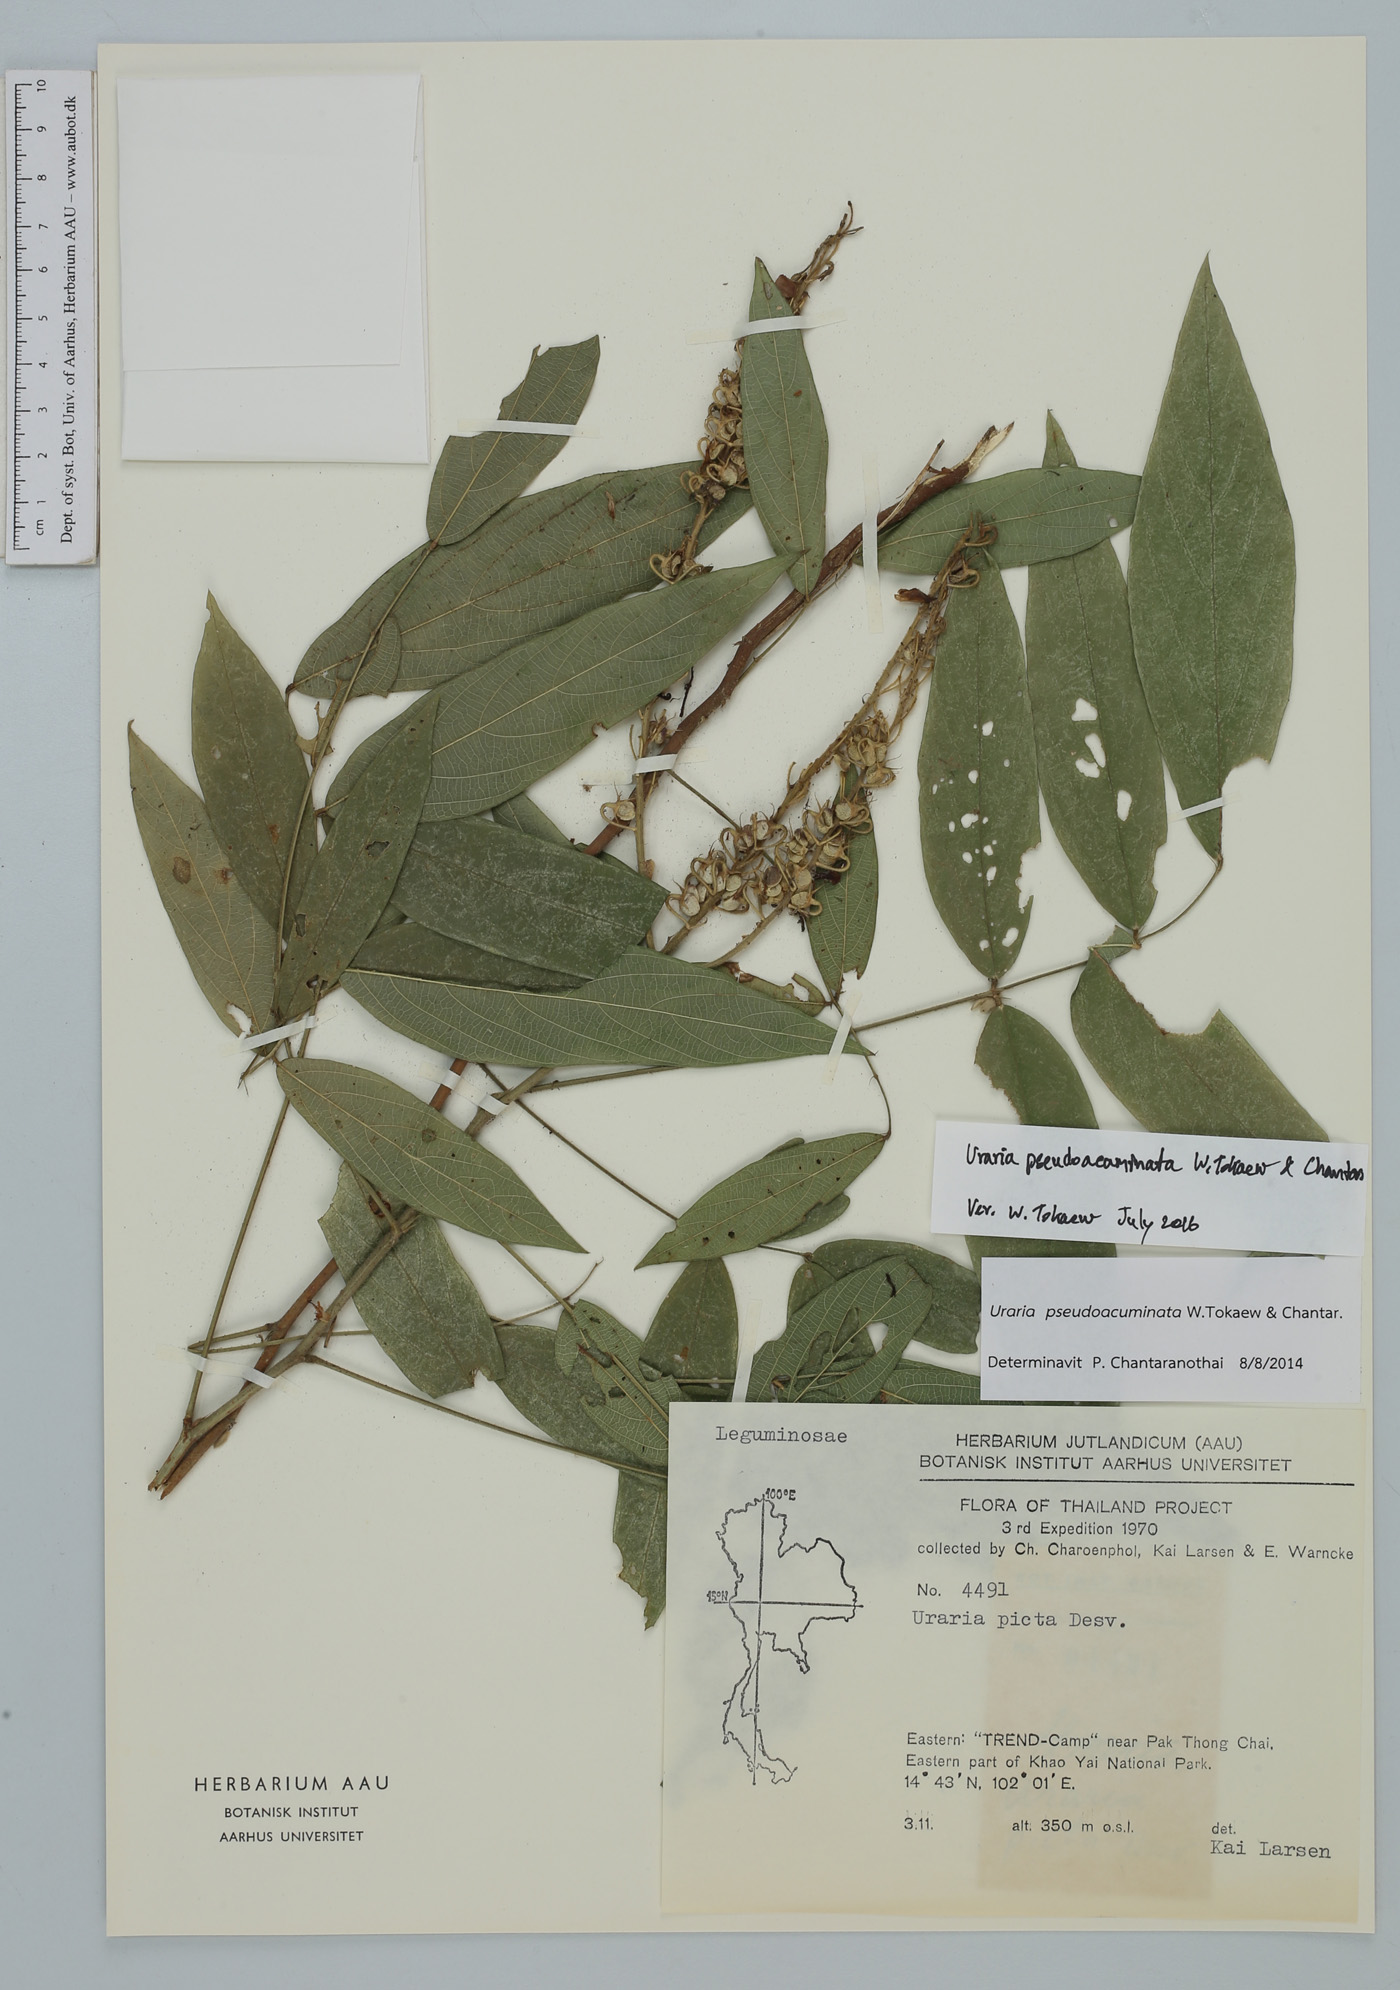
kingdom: Plantae
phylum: Tracheophyta
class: Magnoliopsida
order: Fabales
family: Fabaceae
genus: Uraria
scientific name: Uraria pseudoacuminata
